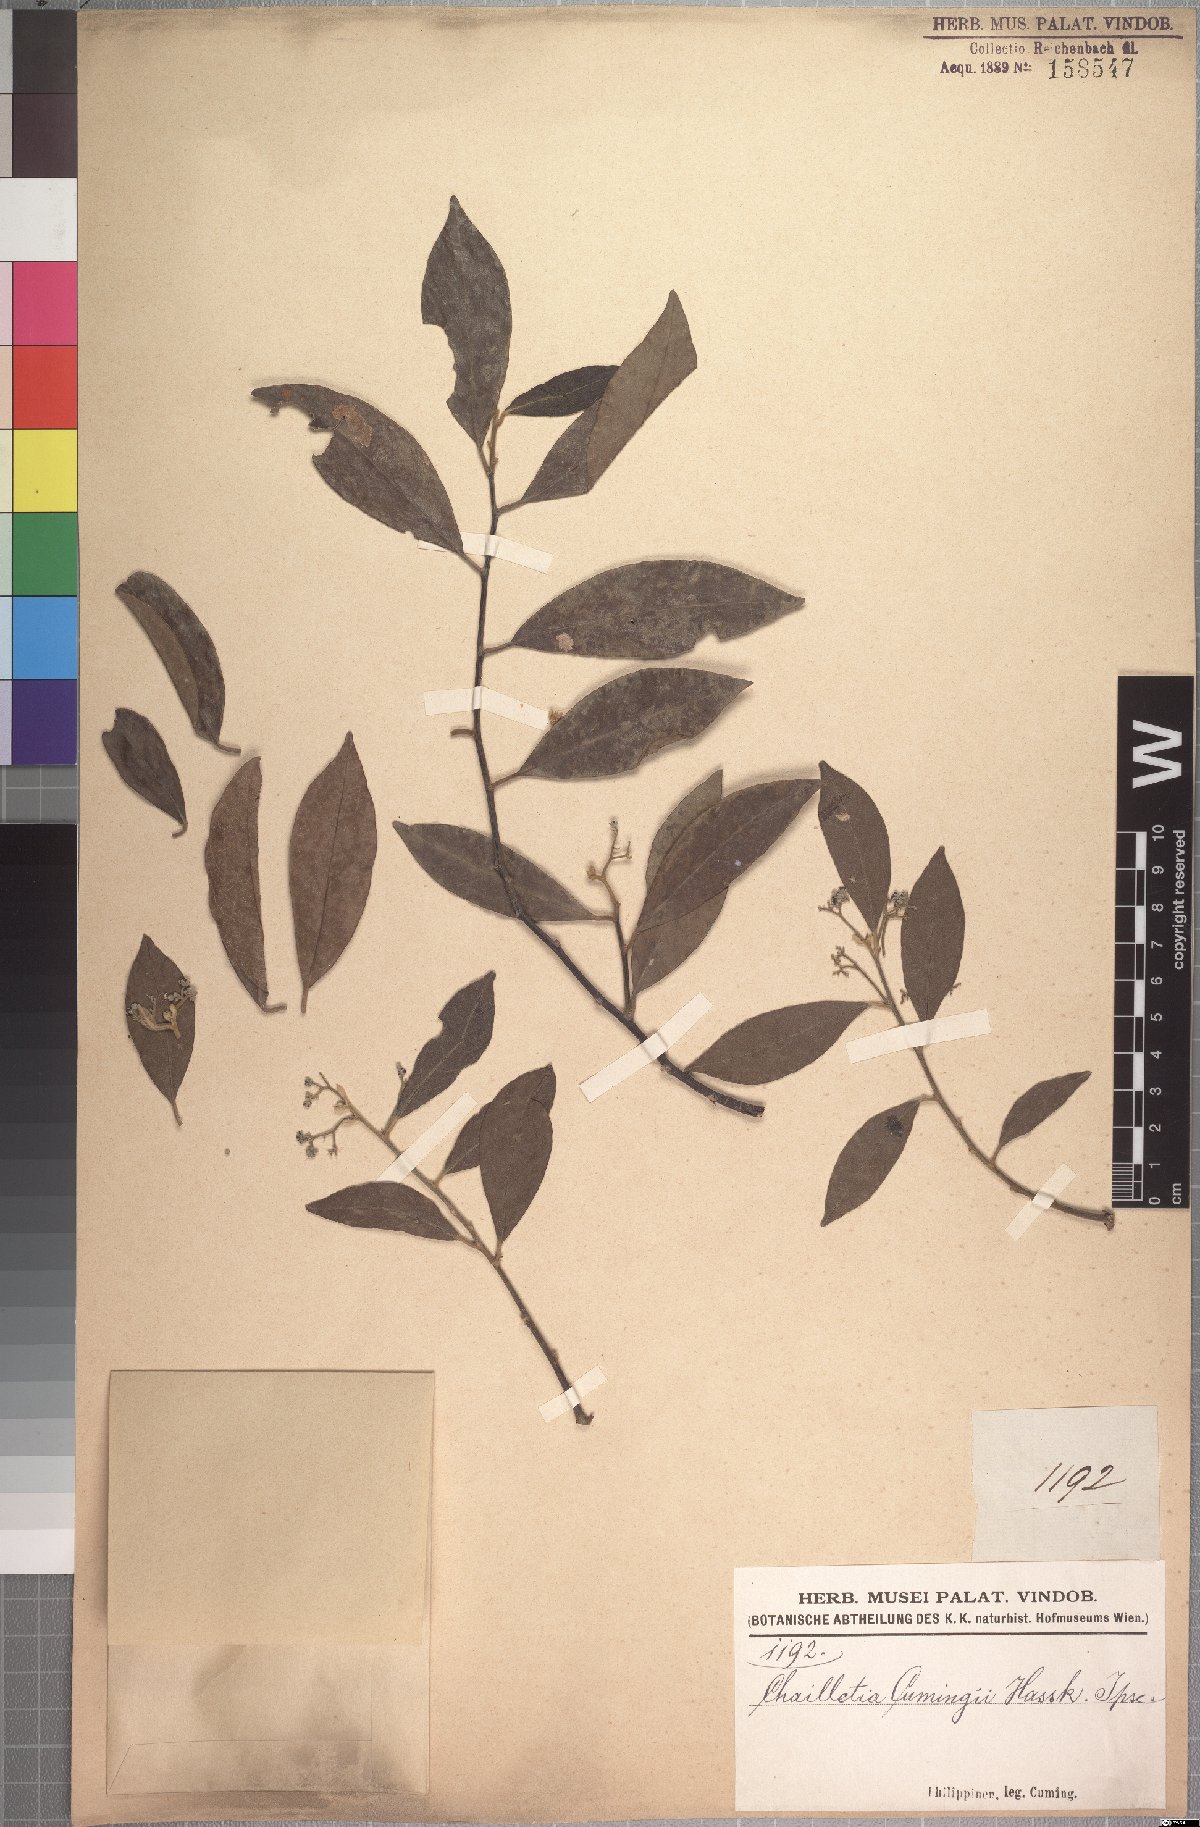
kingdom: Plantae
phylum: Tracheophyta
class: Magnoliopsida
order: Malpighiales
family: Dichapetalaceae
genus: Dichapetalum
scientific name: Dichapetalum timoriense
